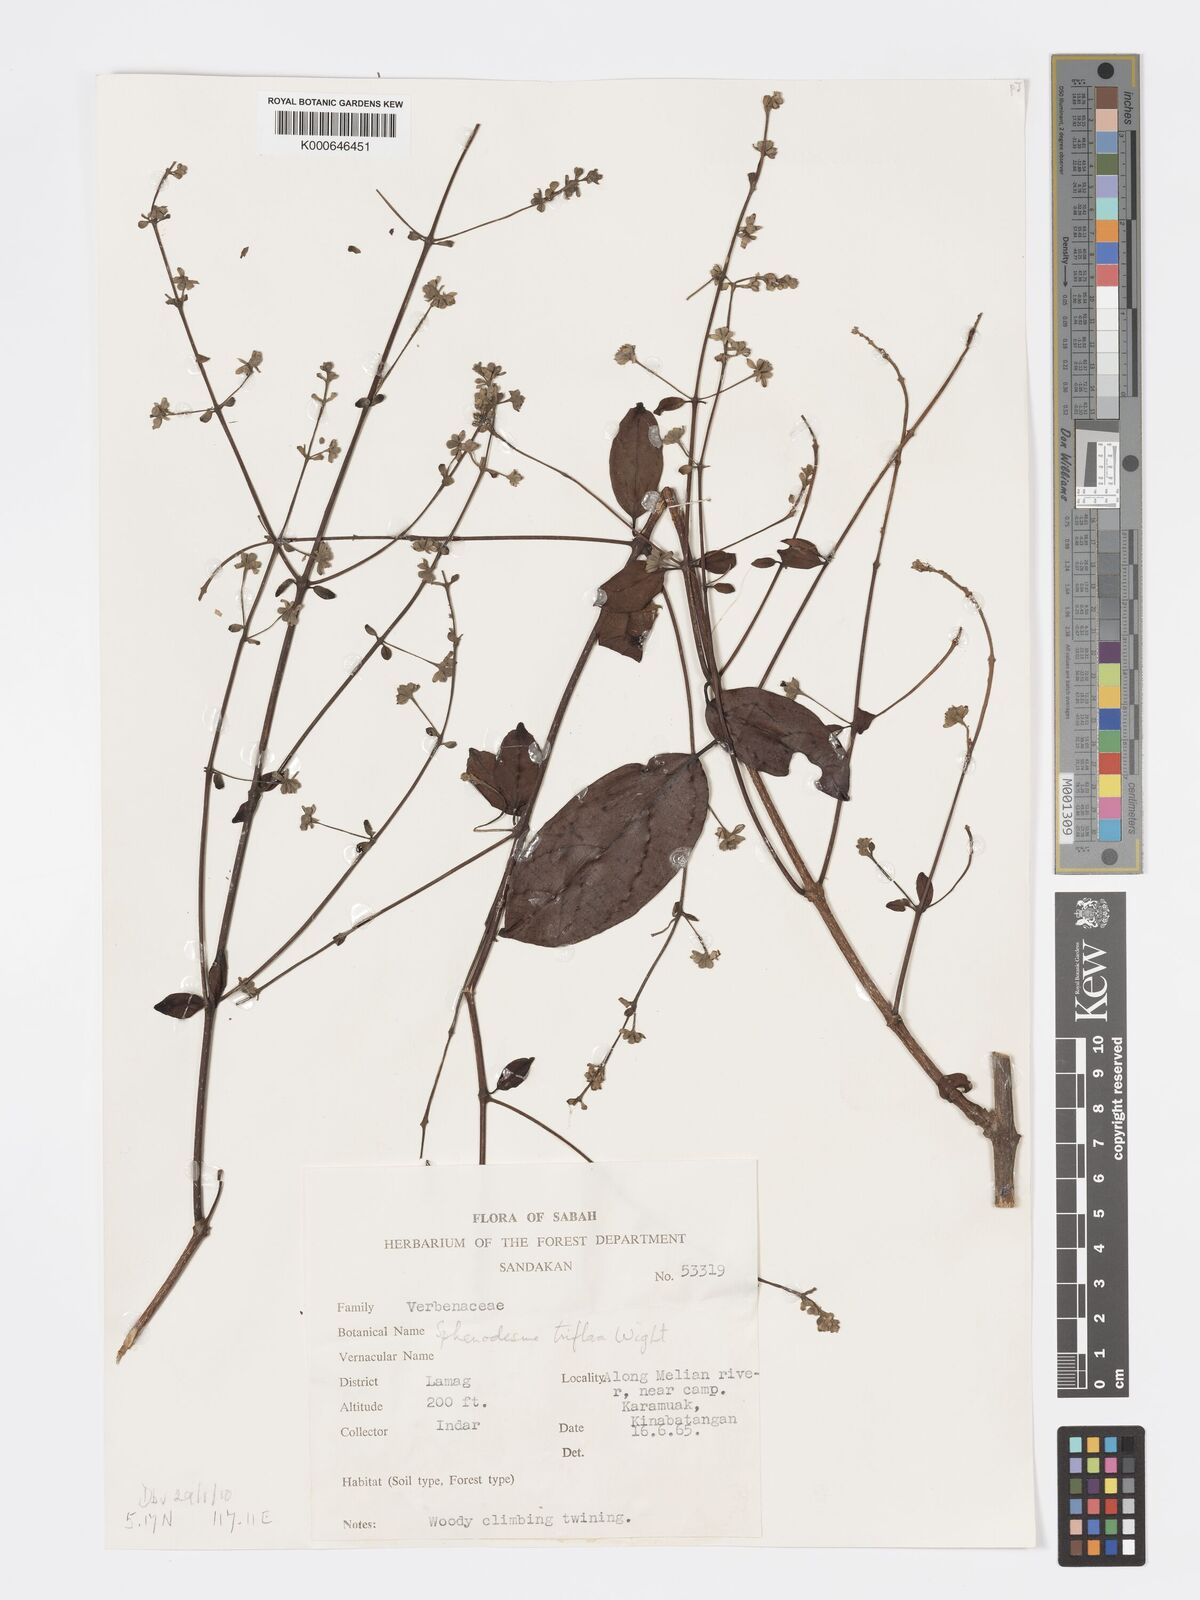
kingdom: Plantae
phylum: Tracheophyta
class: Magnoliopsida
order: Lamiales
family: Lamiaceae
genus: Sphenodesme
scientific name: Sphenodesme
